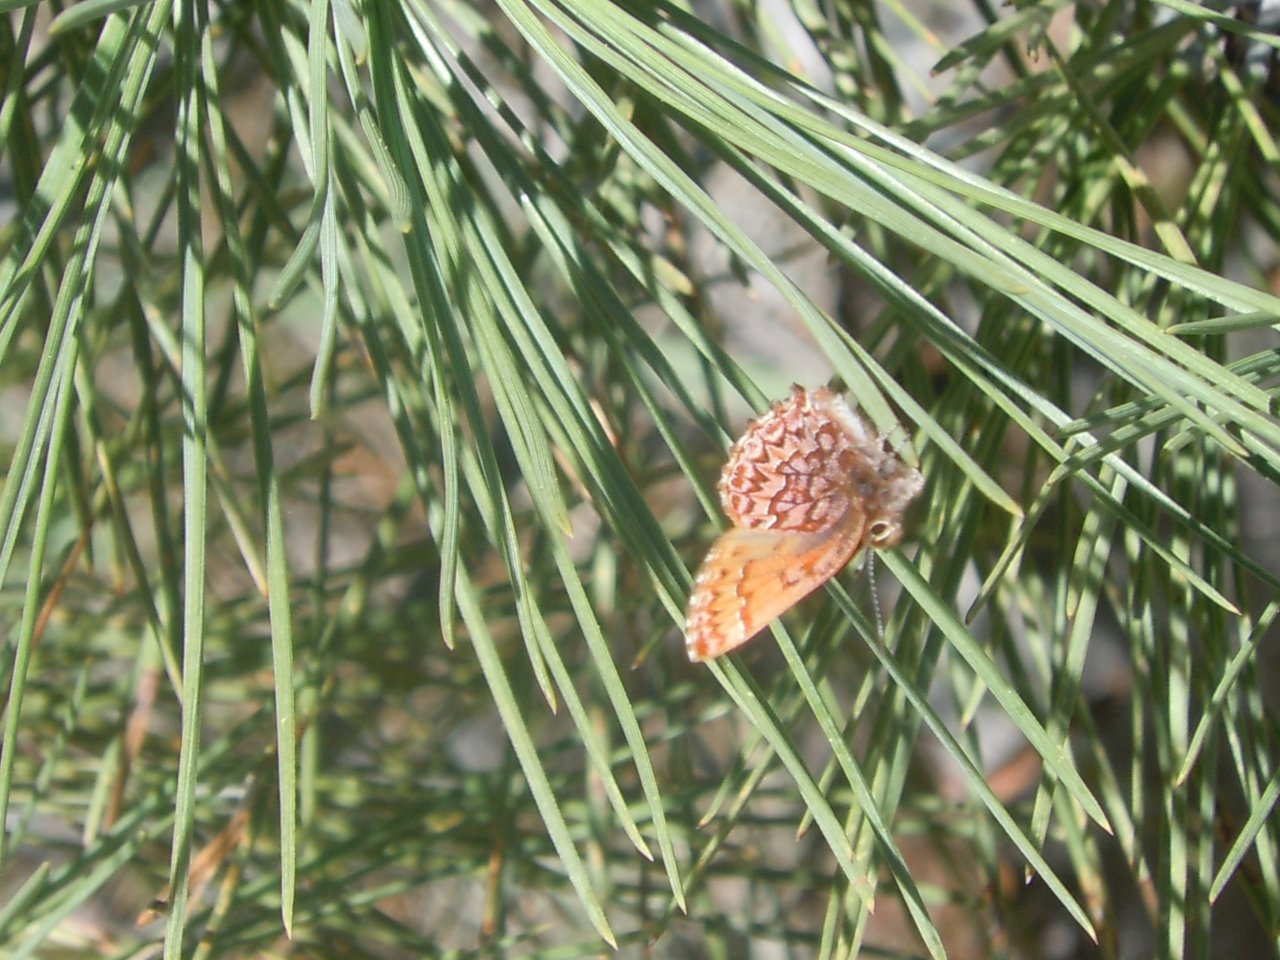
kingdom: Animalia
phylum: Arthropoda
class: Insecta
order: Lepidoptera
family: Lycaenidae
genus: Incisalia
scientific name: Incisalia eryphon
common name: Western Pine Elfin
